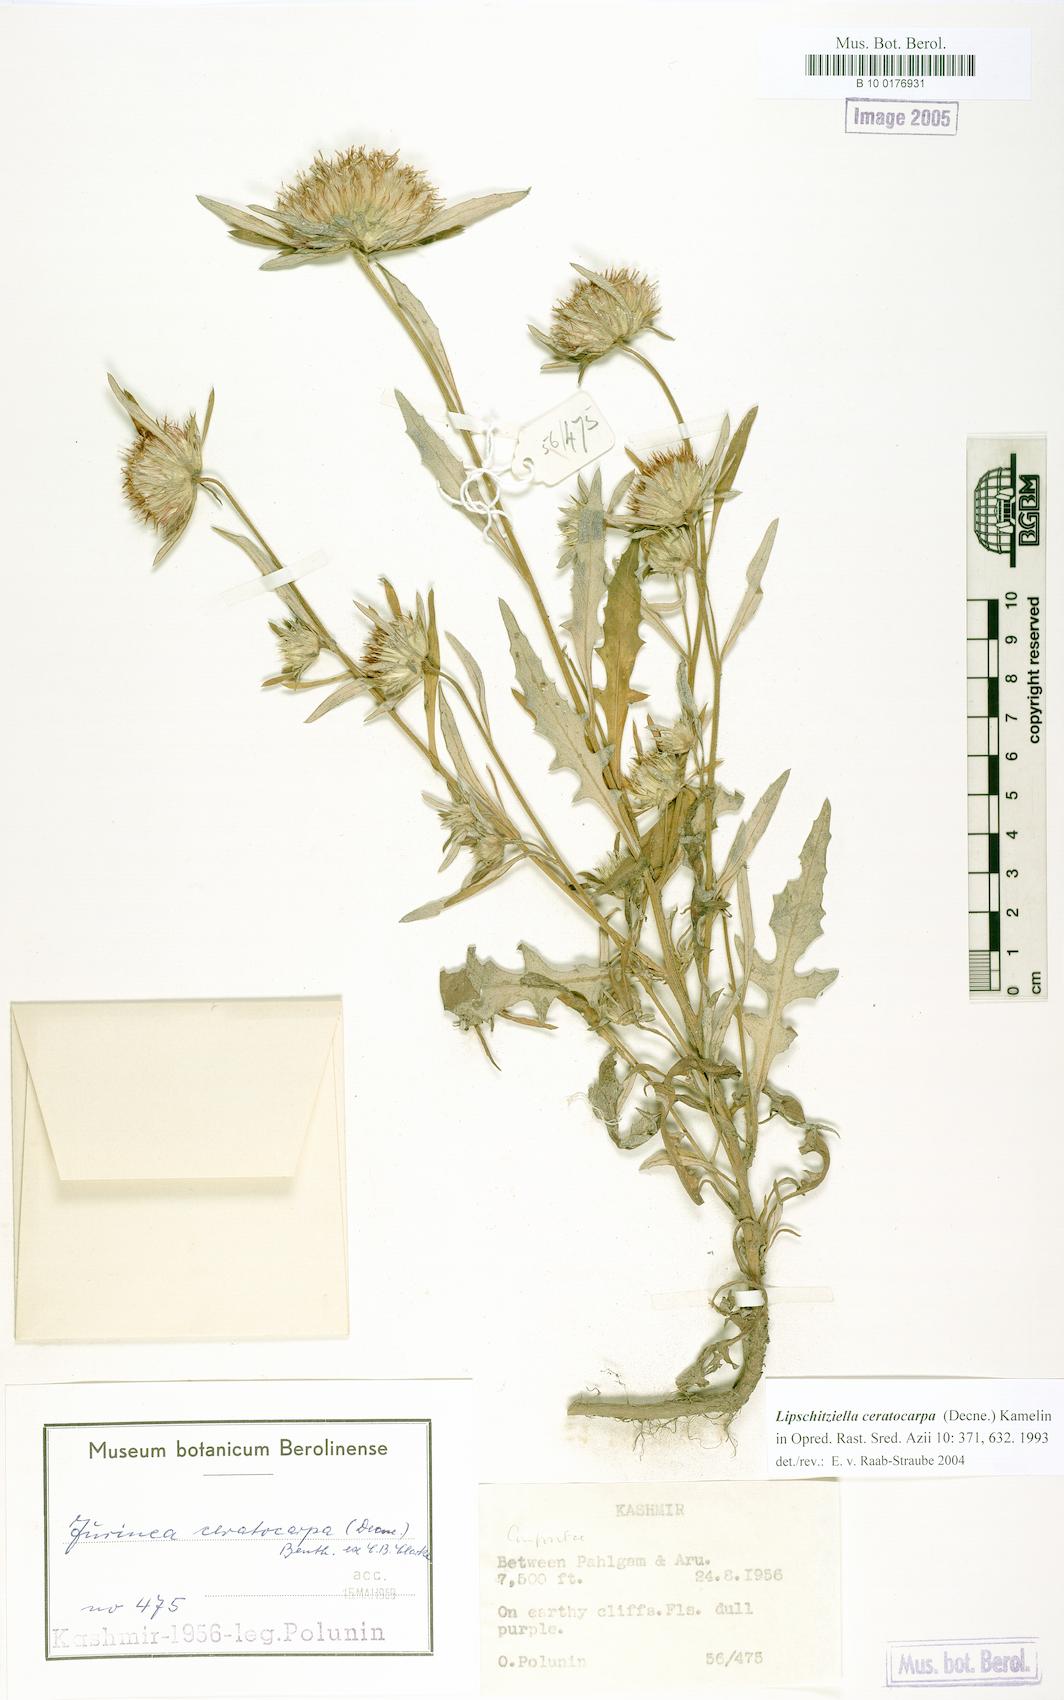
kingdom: Plantae
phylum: Tracheophyta
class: Magnoliopsida
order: Asterales
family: Asteraceae
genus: Jurinea
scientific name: Jurinea ceratocarpa
